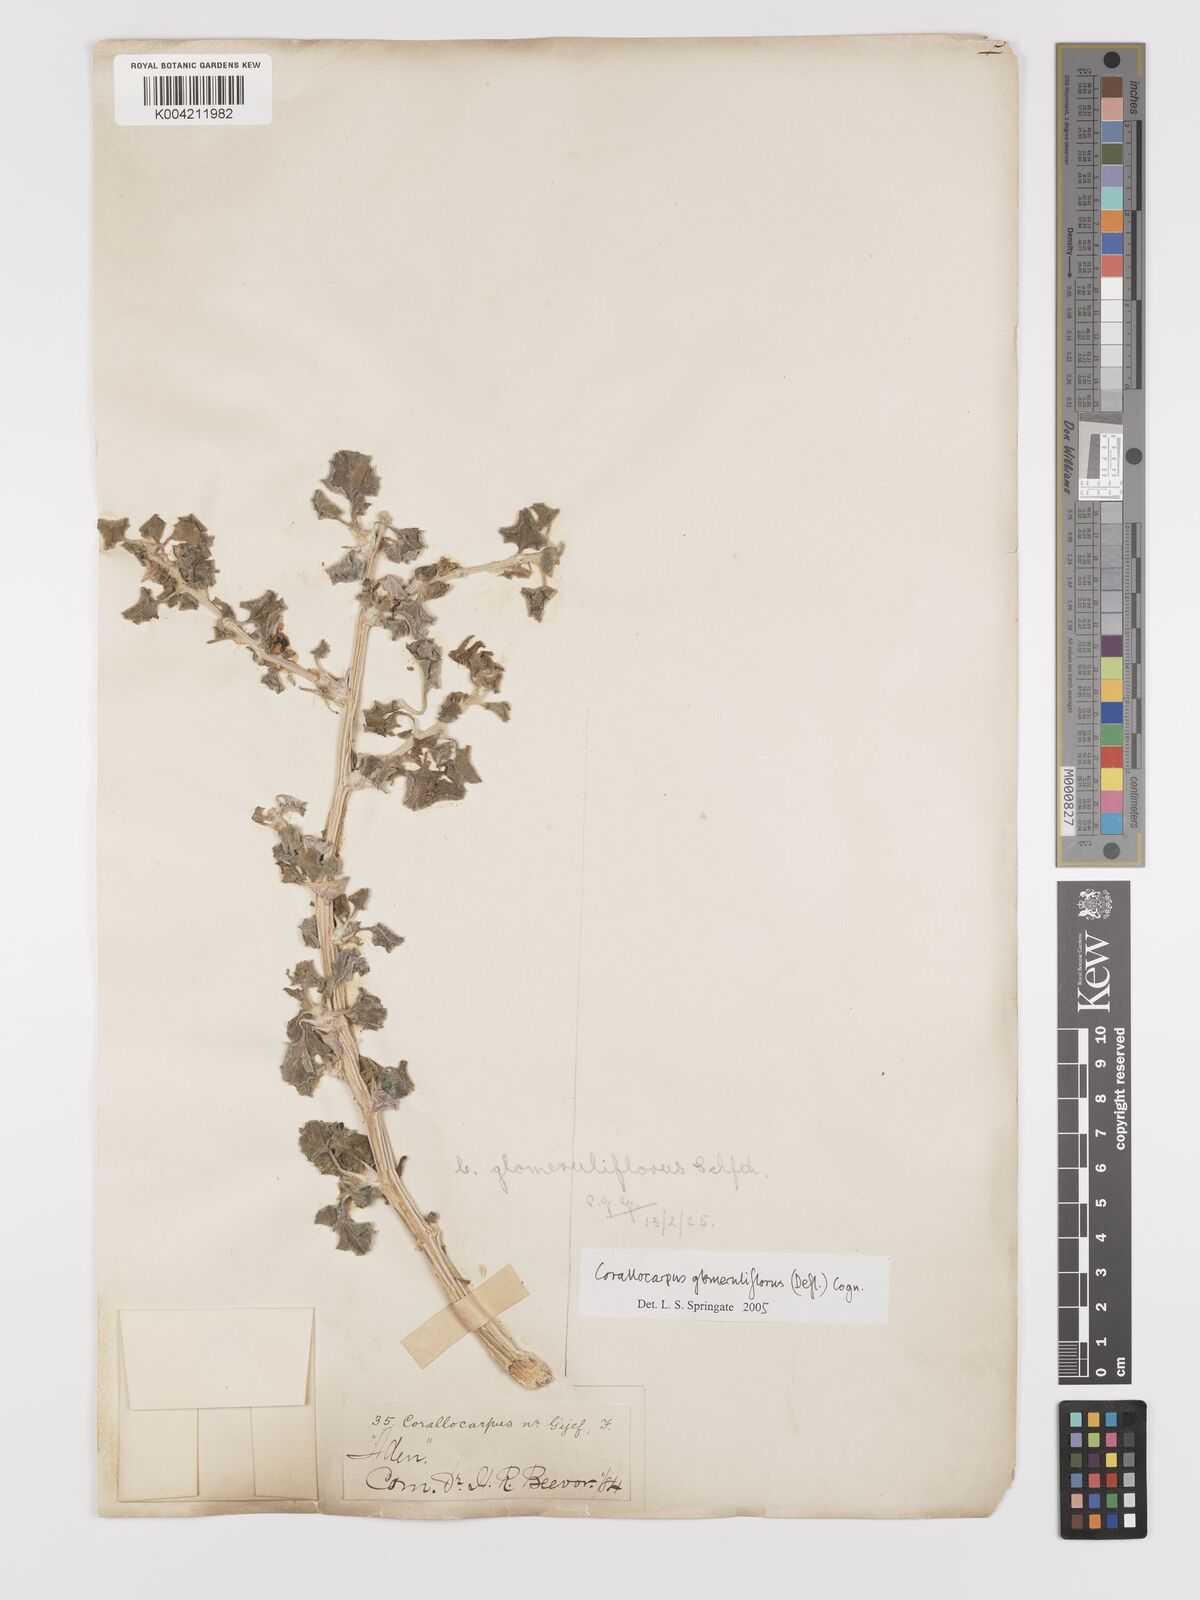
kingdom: Plantae
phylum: Tracheophyta
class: Magnoliopsida
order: Cucurbitales
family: Cucurbitaceae
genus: Corallocarpus
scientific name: Corallocarpus glomeruliflorus
